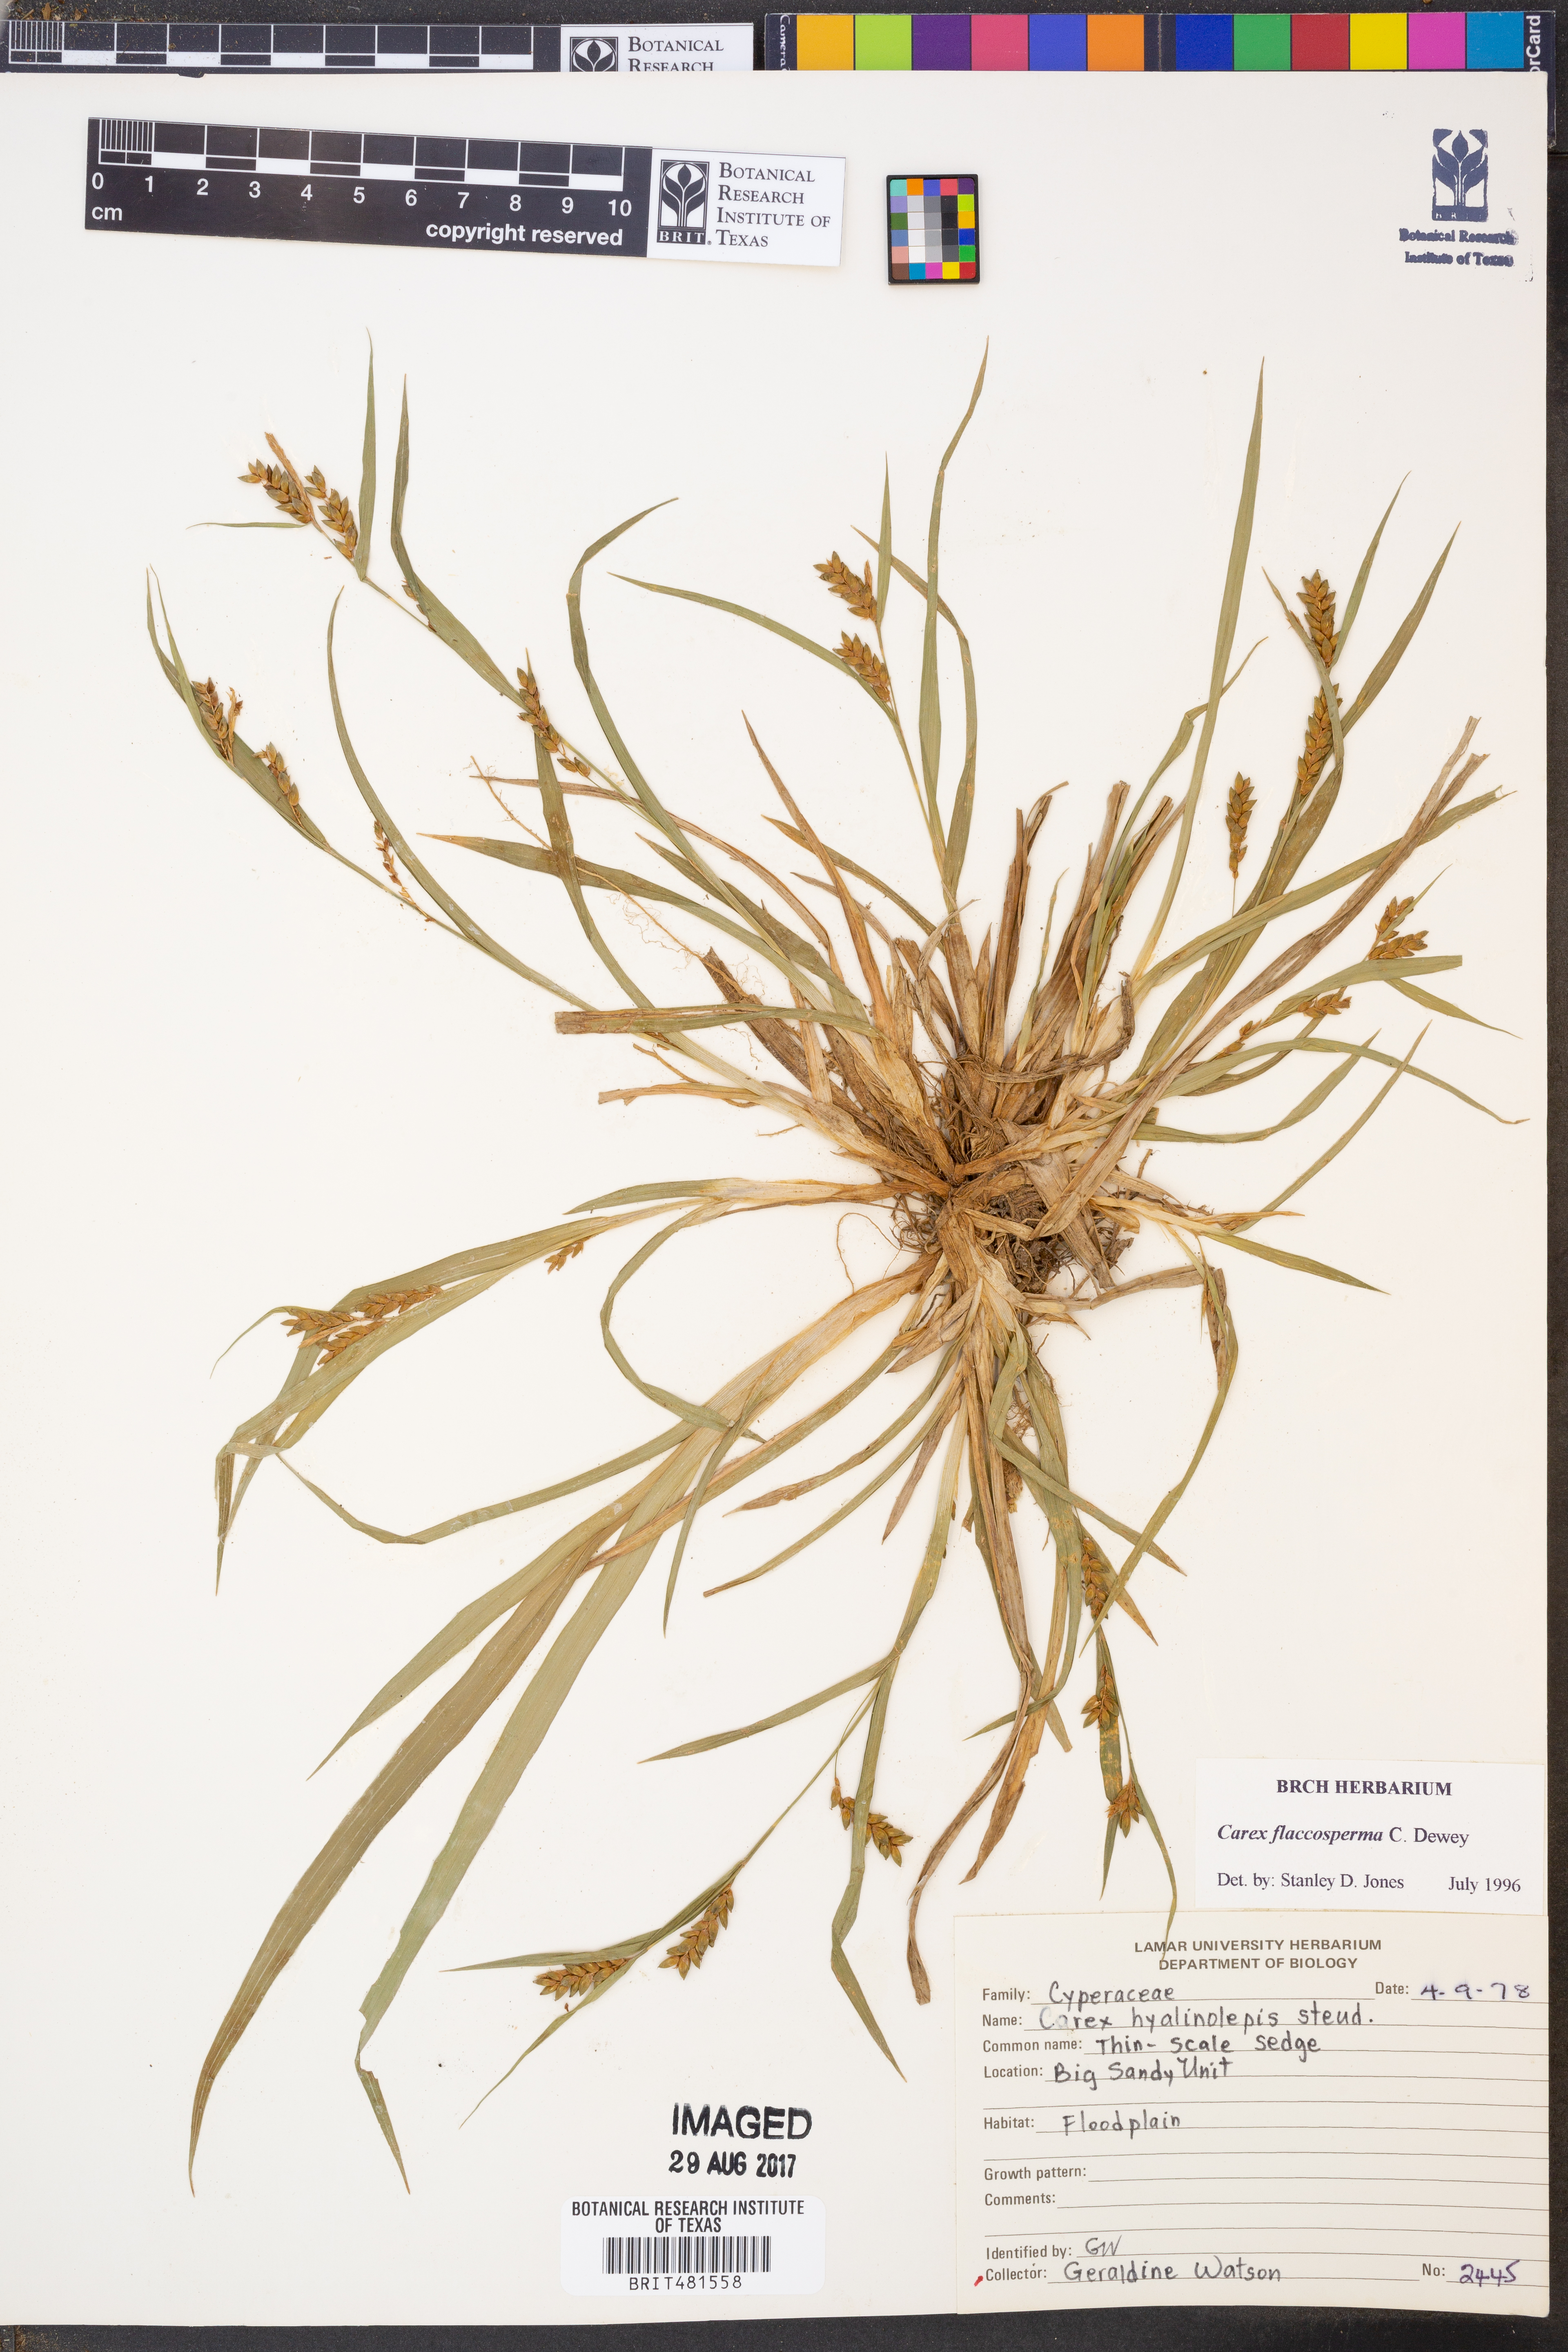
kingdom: Plantae
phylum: Tracheophyta
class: Liliopsida
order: Poales
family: Cyperaceae
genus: Carex
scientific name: Carex flaccosperma
